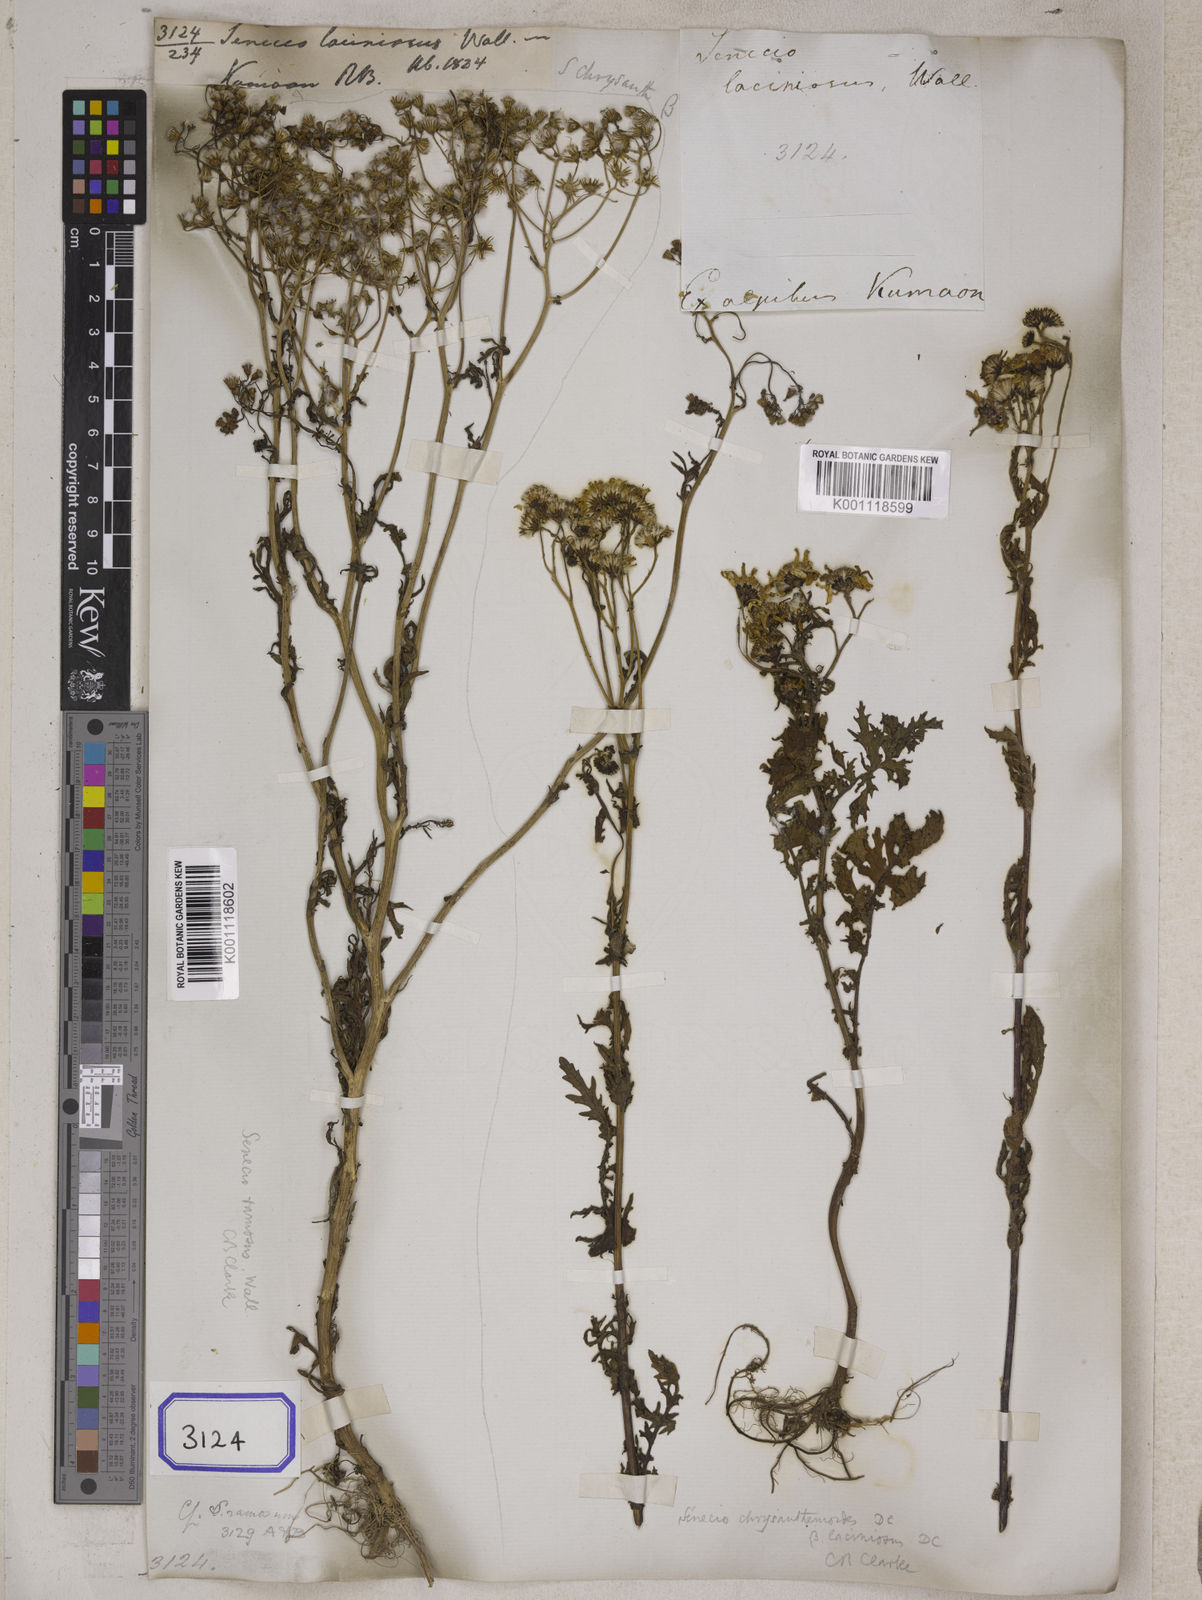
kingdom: Plantae
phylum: Tracheophyta
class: Magnoliopsida
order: Asterales
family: Asteraceae
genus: Jacobaea
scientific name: Jacobaea analoga
